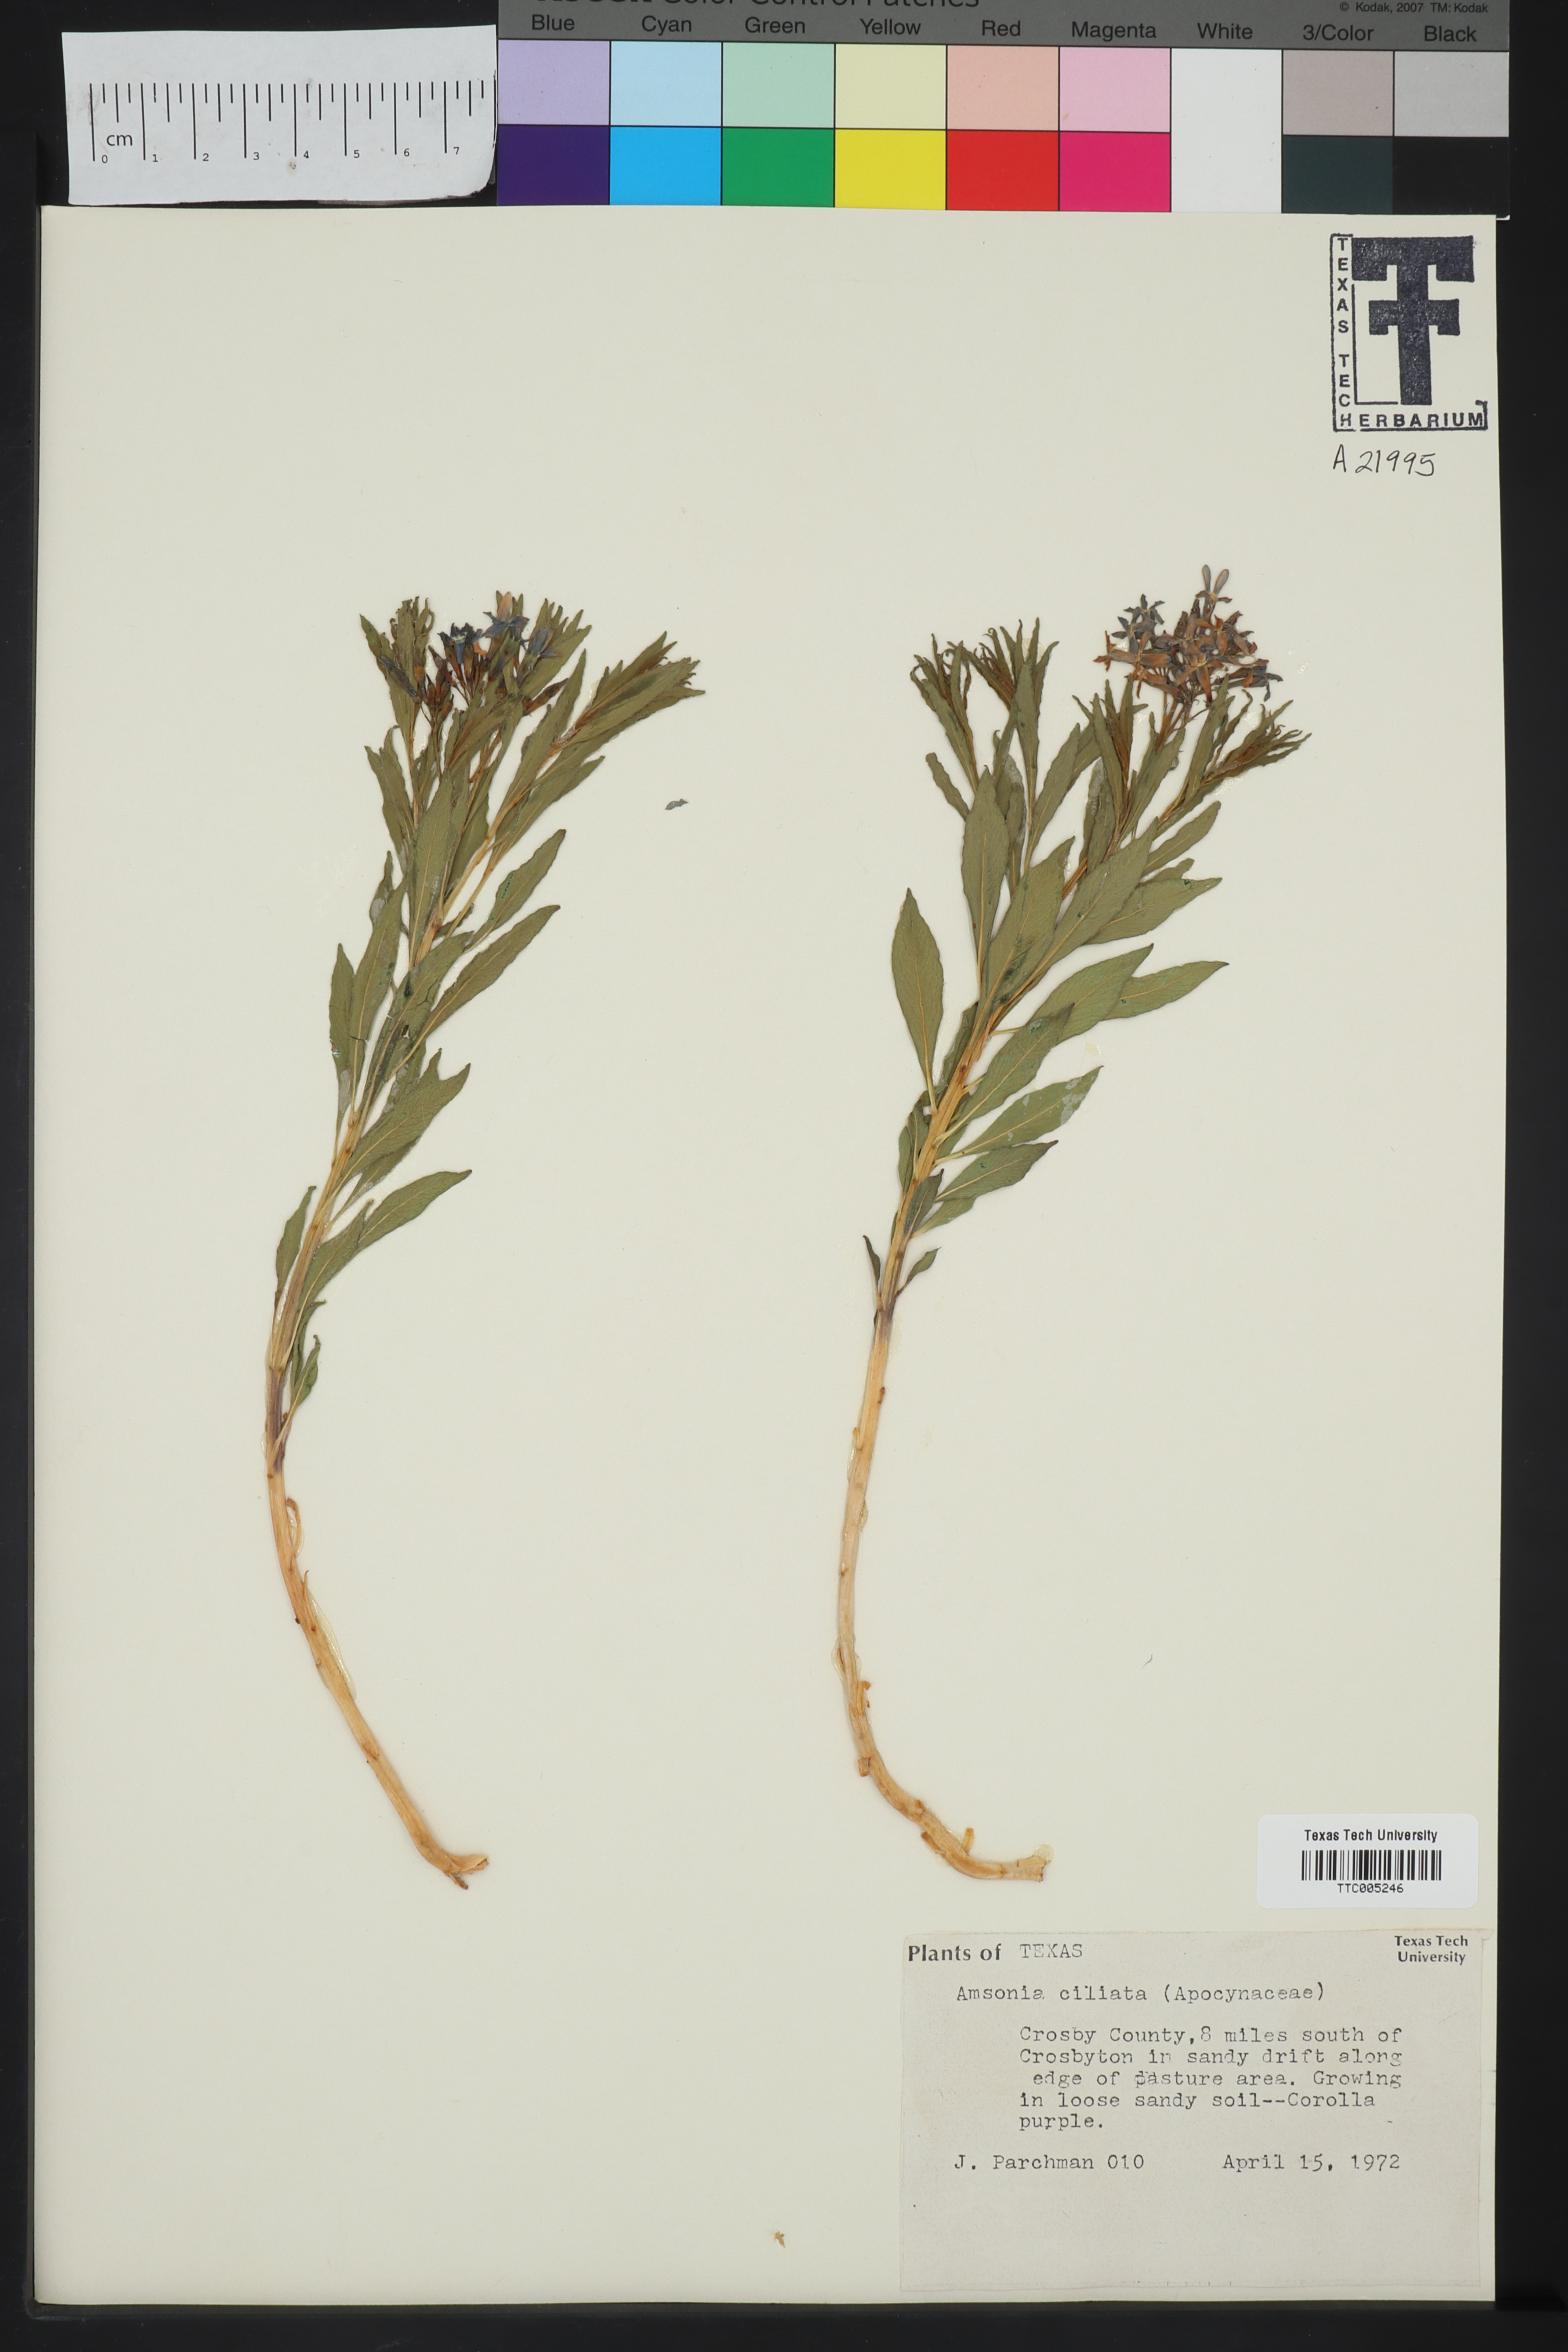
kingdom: Plantae
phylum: Tracheophyta
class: Magnoliopsida
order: Gentianales
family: Apocynaceae
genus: Amsonia
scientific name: Amsonia ciliata
